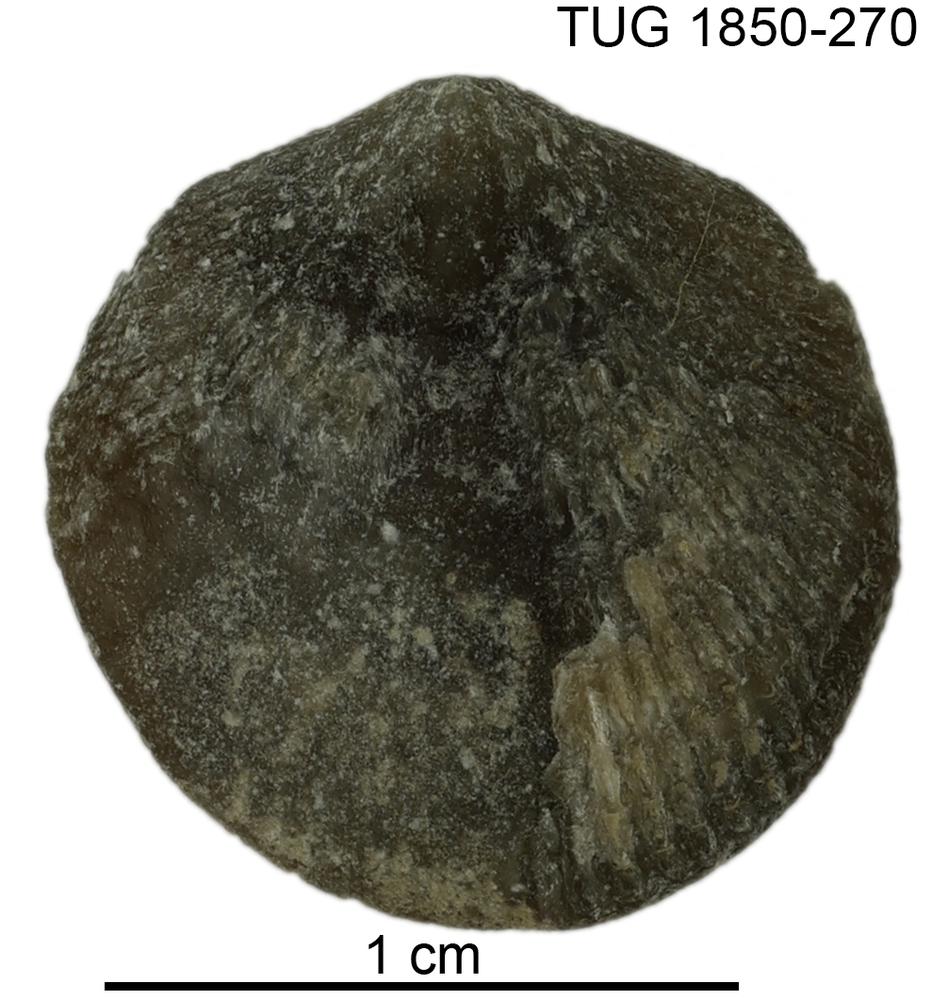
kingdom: Animalia
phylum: Brachiopoda
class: Rhynchonellata
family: Meristellidae
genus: Meristina
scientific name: Meristina
